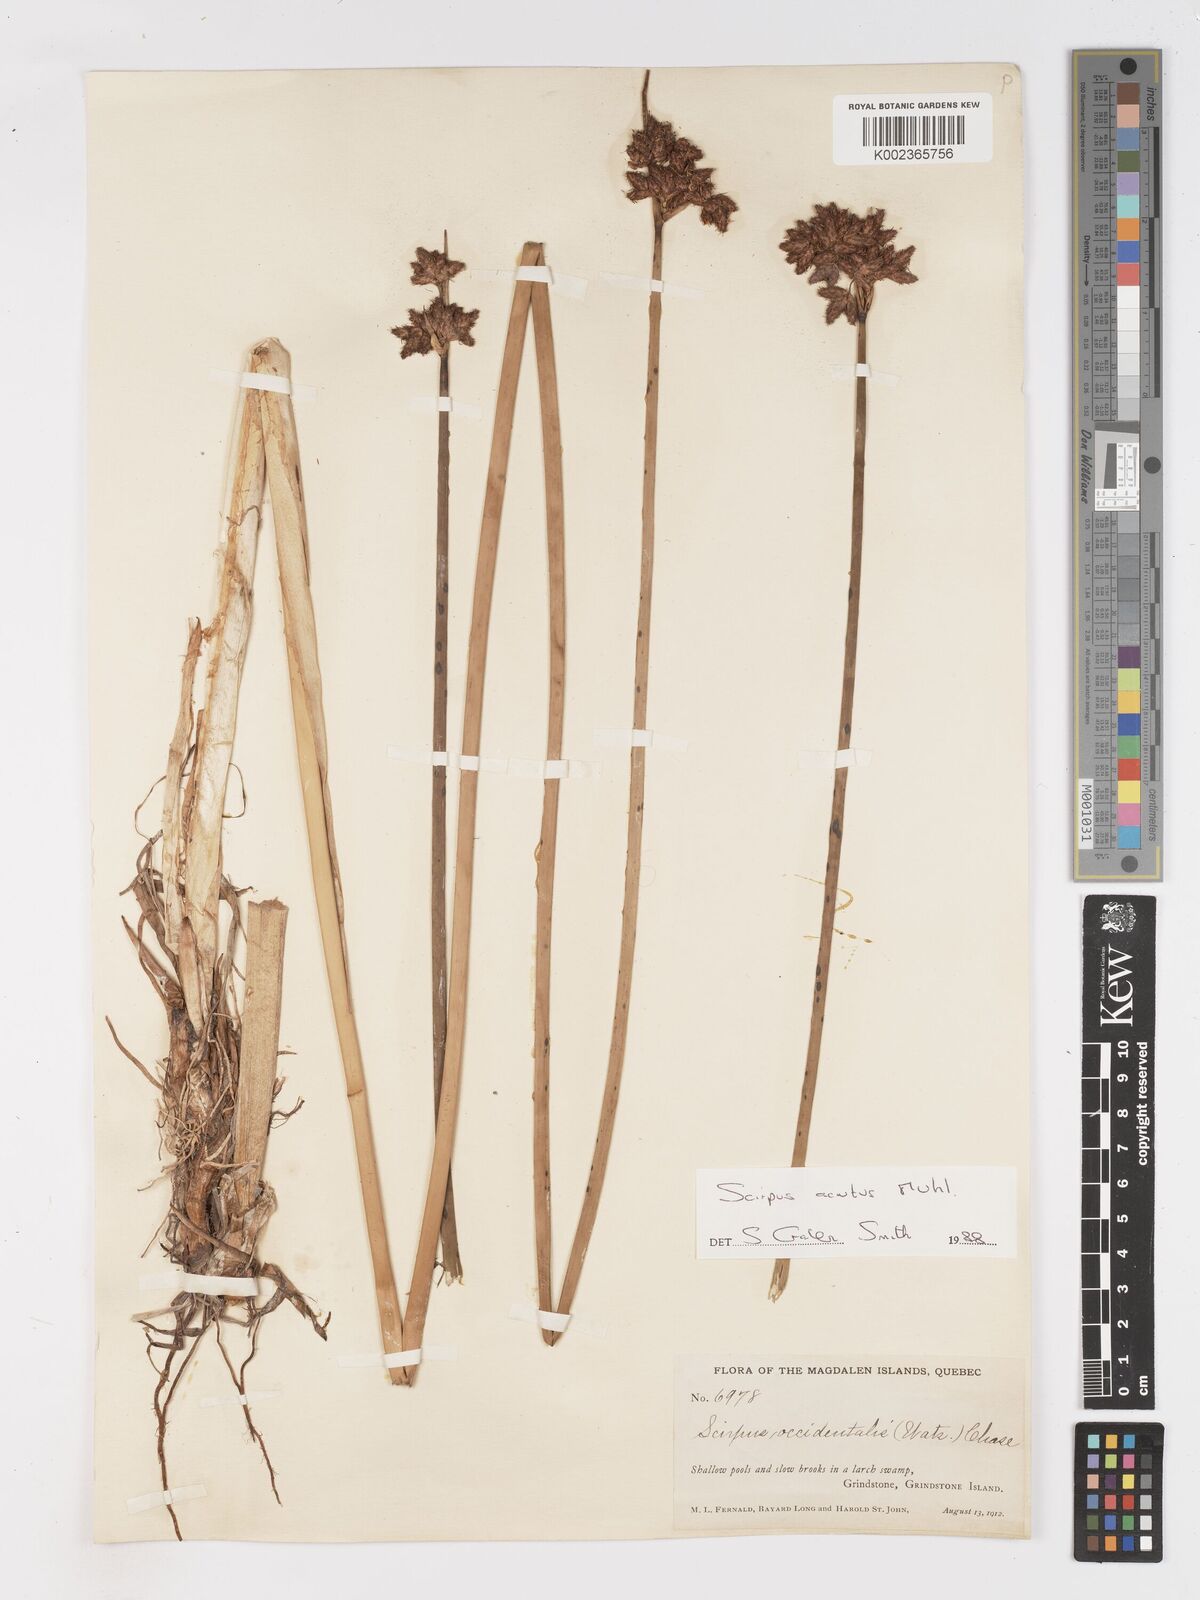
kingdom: Plantae
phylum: Tracheophyta
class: Liliopsida
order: Poales
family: Cyperaceae
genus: Schoenoplectus
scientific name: Schoenoplectus
